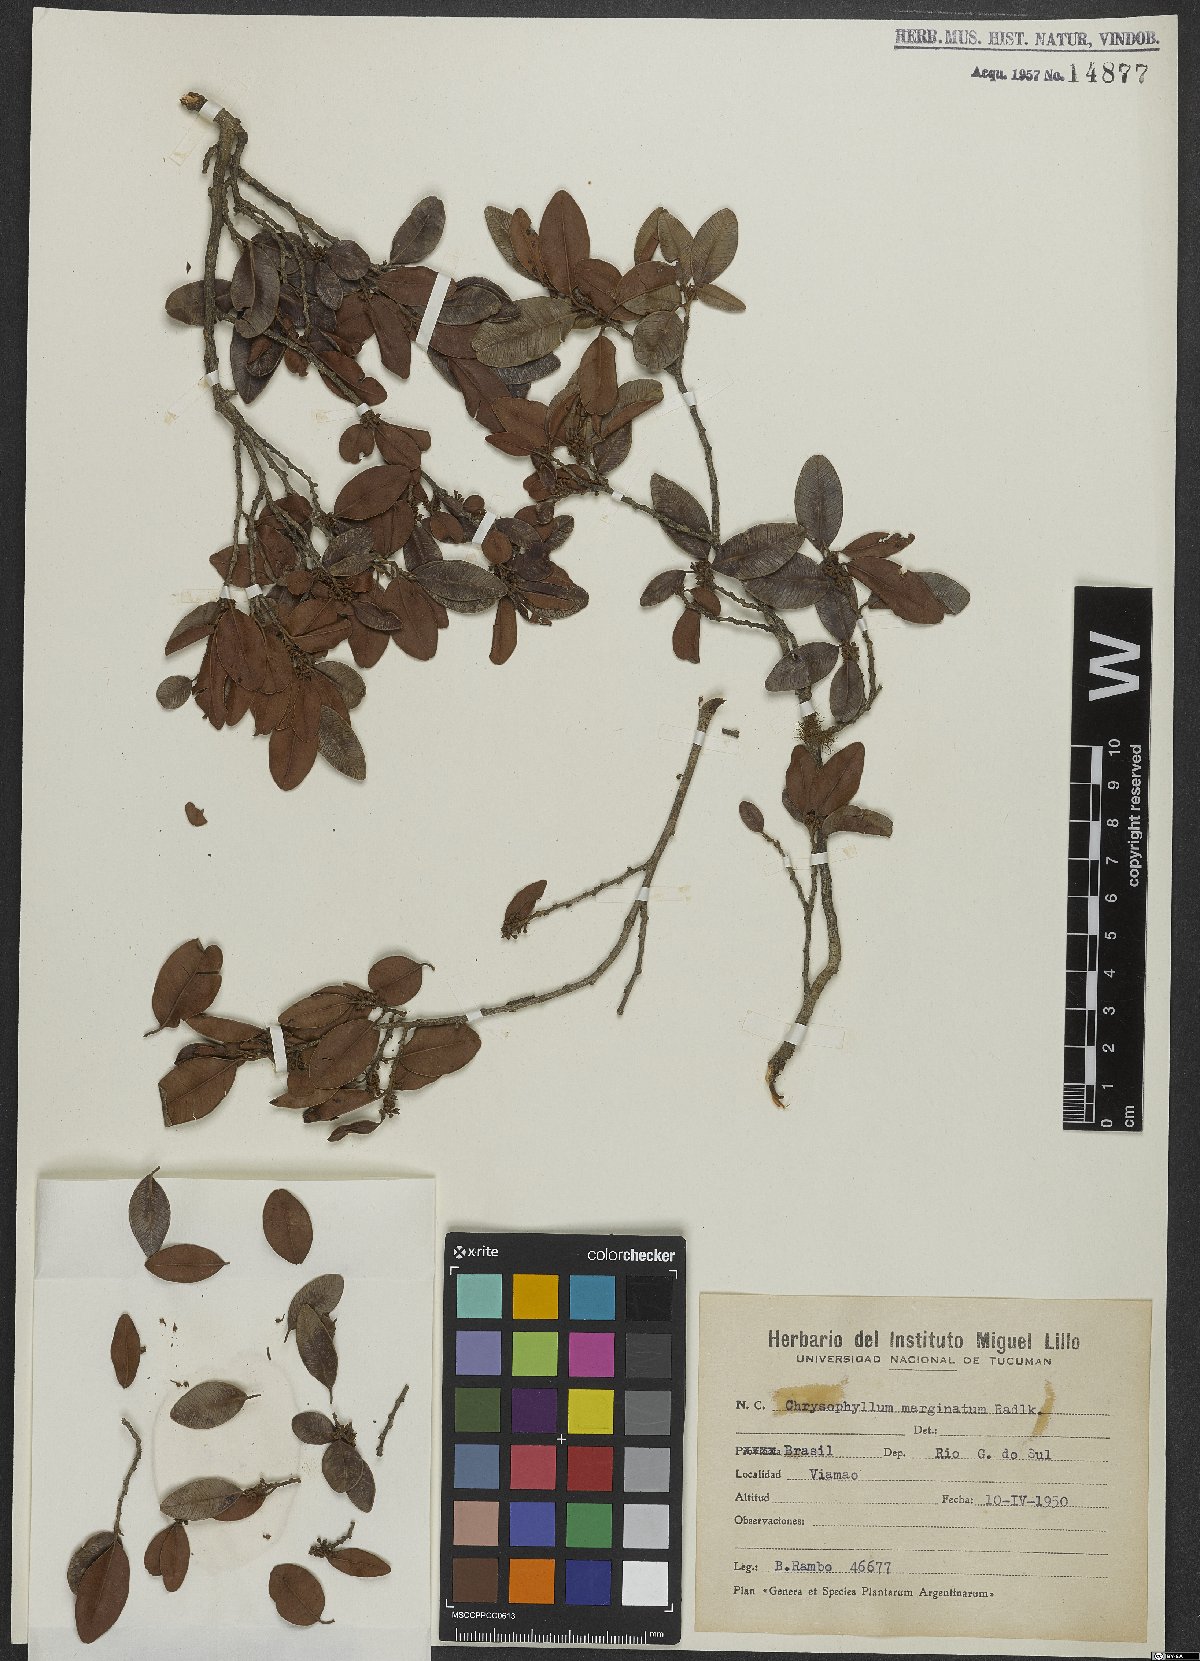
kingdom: Plantae
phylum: Tracheophyta
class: Magnoliopsida
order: Ericales
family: Sapotaceae
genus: Chrysophyllum
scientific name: Chrysophyllum marginatum
